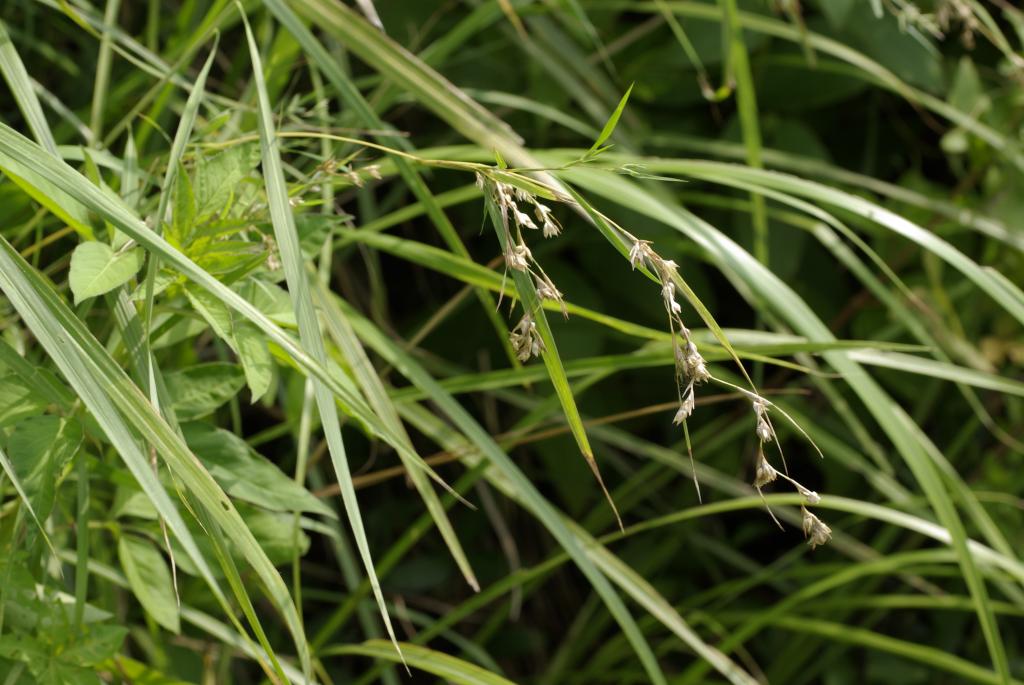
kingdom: Plantae
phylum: Tracheophyta
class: Liliopsida
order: Poales
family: Poaceae
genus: Apluda
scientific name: Apluda mutica
